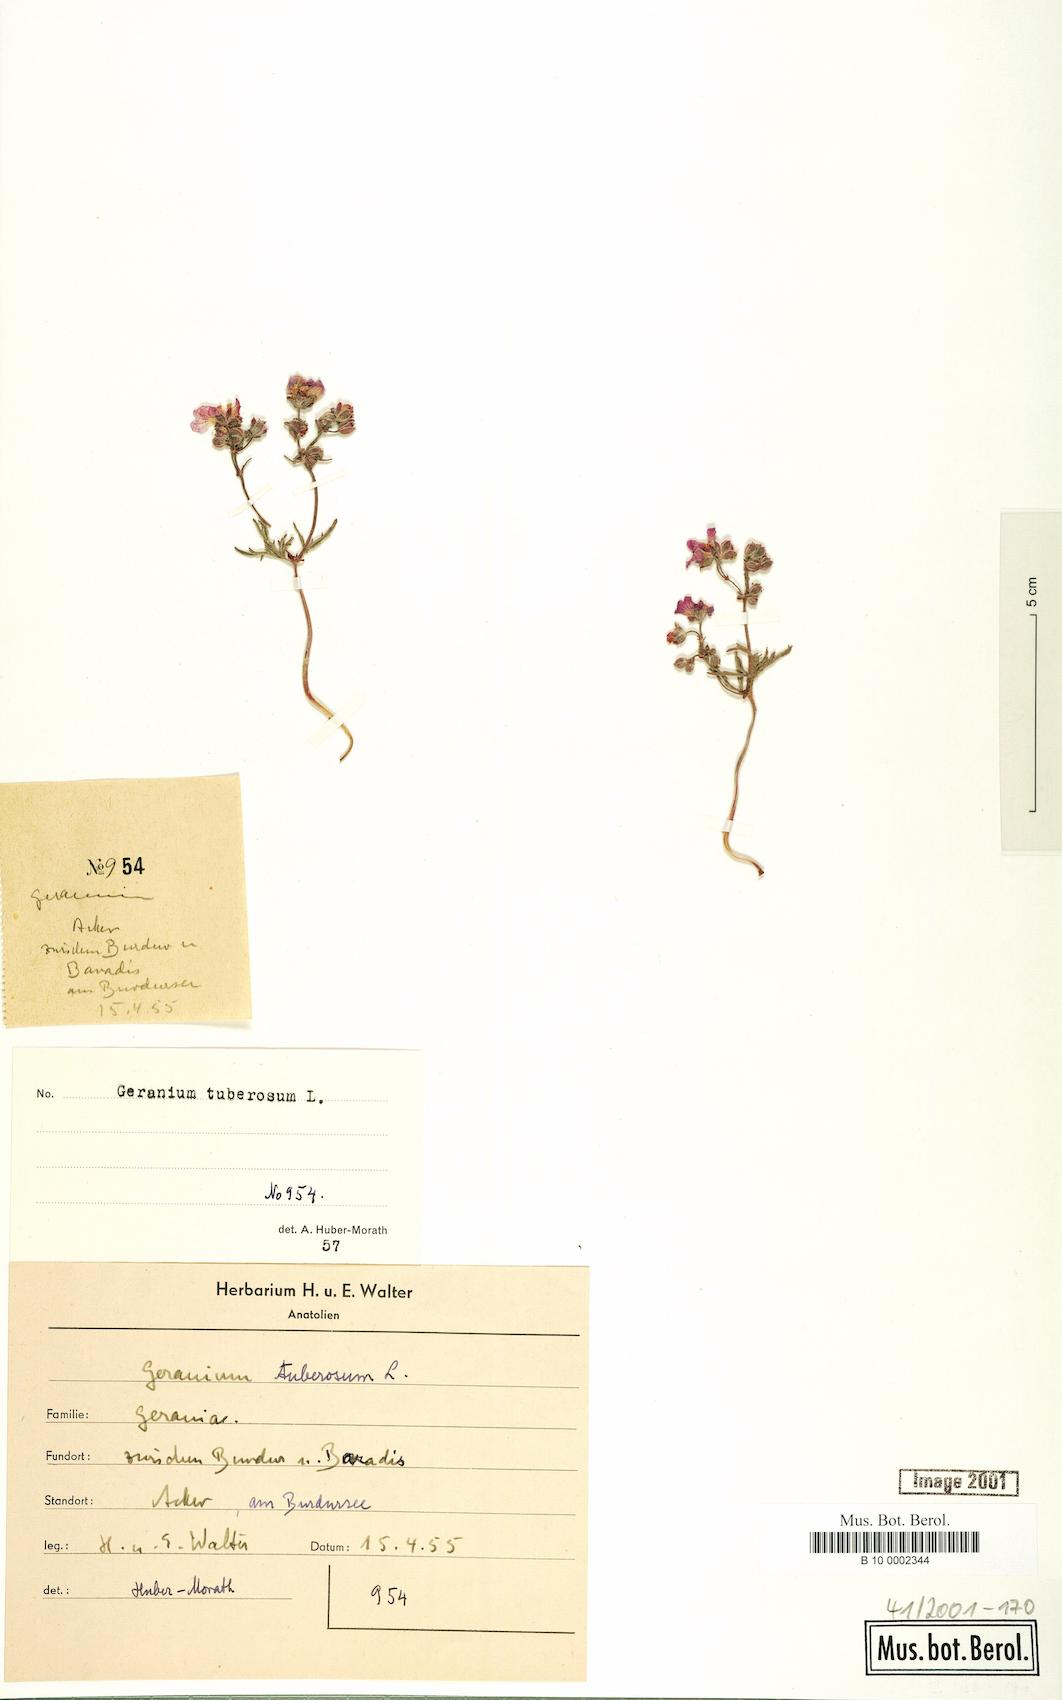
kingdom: Plantae
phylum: Tracheophyta
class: Magnoliopsida
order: Geraniales
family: Geraniaceae
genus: Geranium
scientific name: Geranium tuberosum
